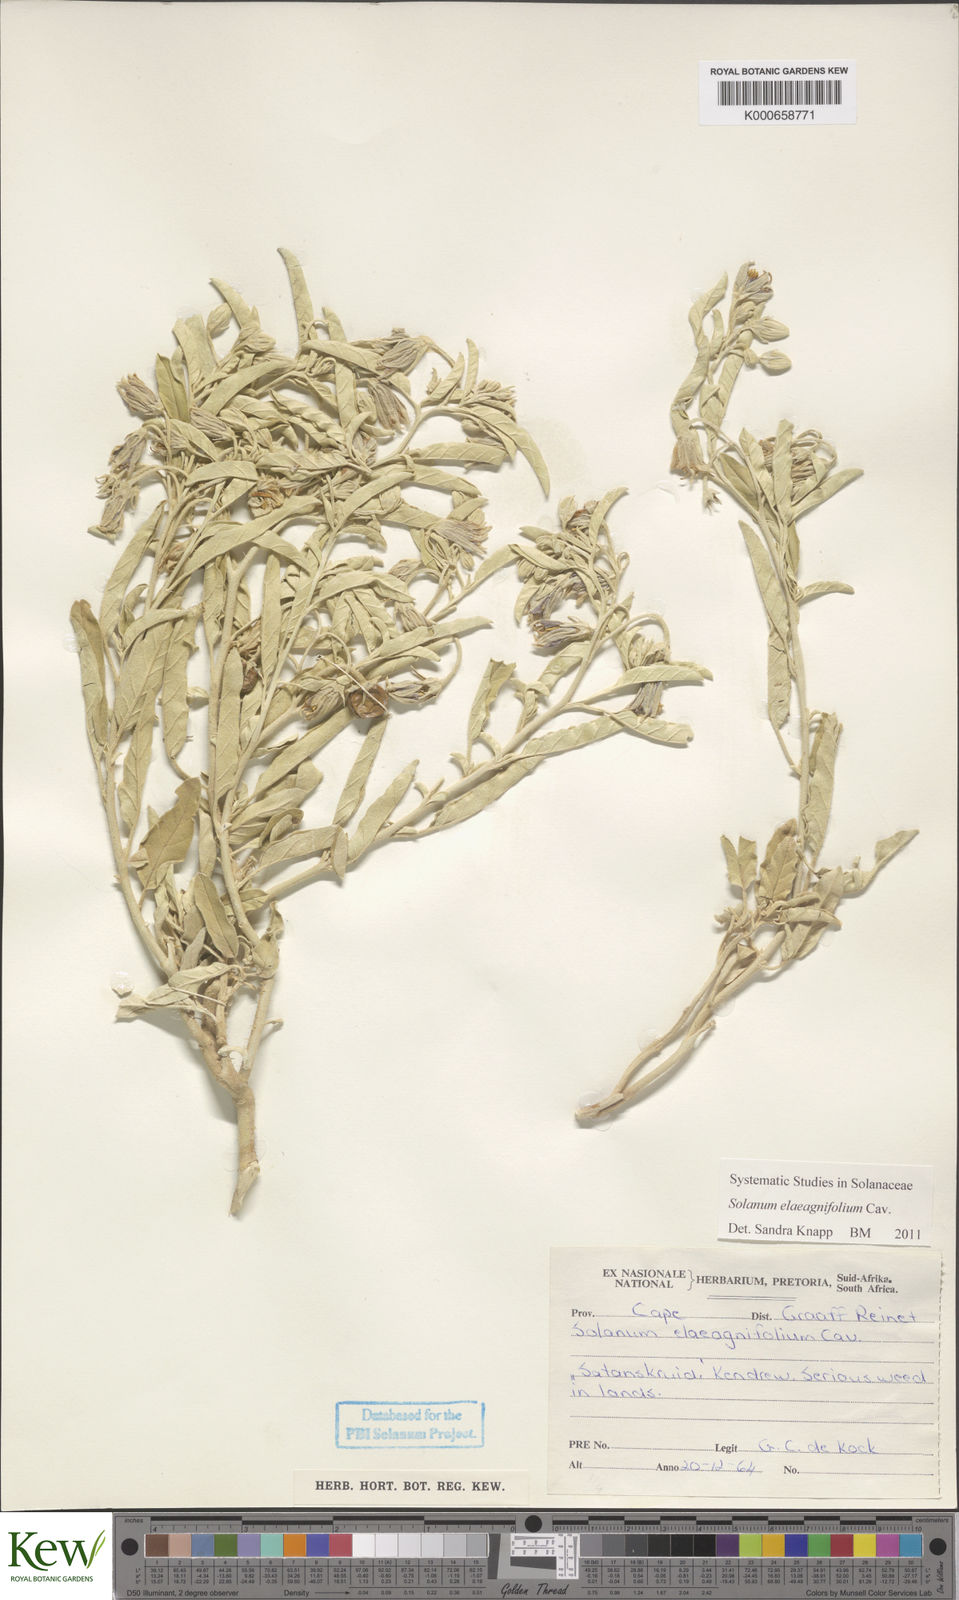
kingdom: Plantae
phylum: Tracheophyta
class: Magnoliopsida
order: Solanales
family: Solanaceae
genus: Solanum
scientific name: Solanum elaeagnifolium
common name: Silverleaf nightshade
